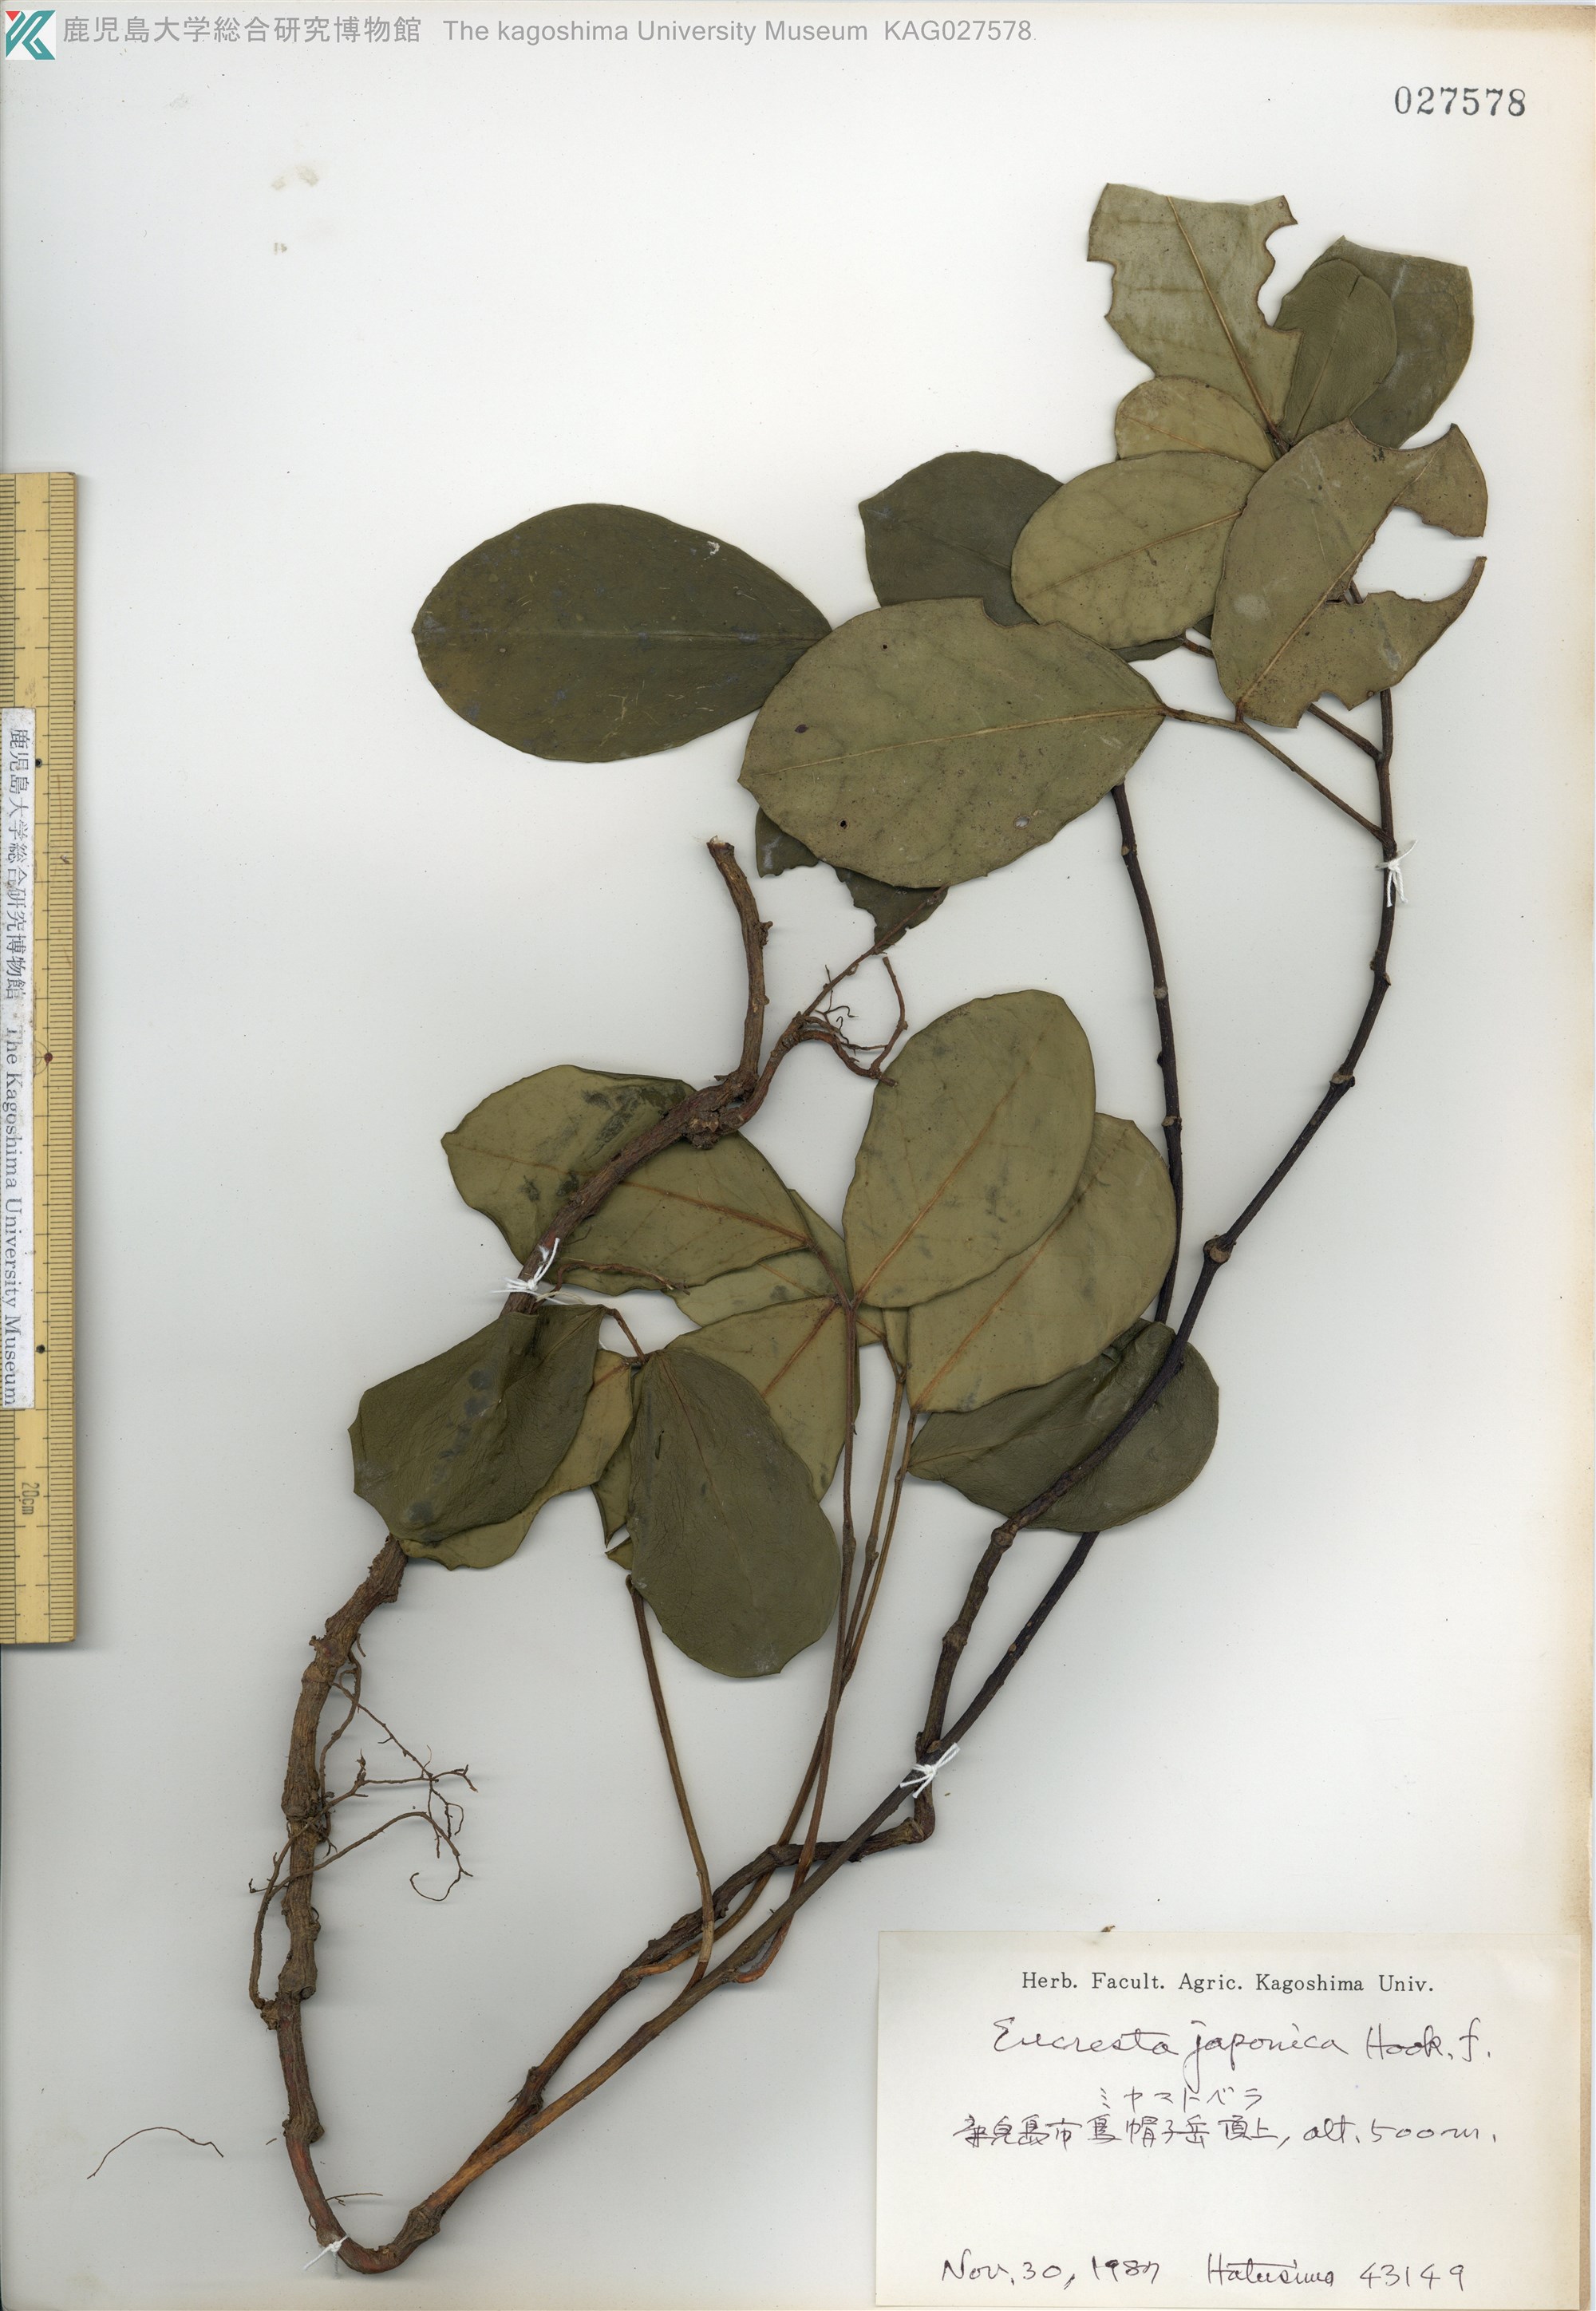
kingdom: Plantae
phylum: Tracheophyta
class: Magnoliopsida
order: Fabales
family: Fabaceae
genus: Euchresta
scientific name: Euchresta japonica
